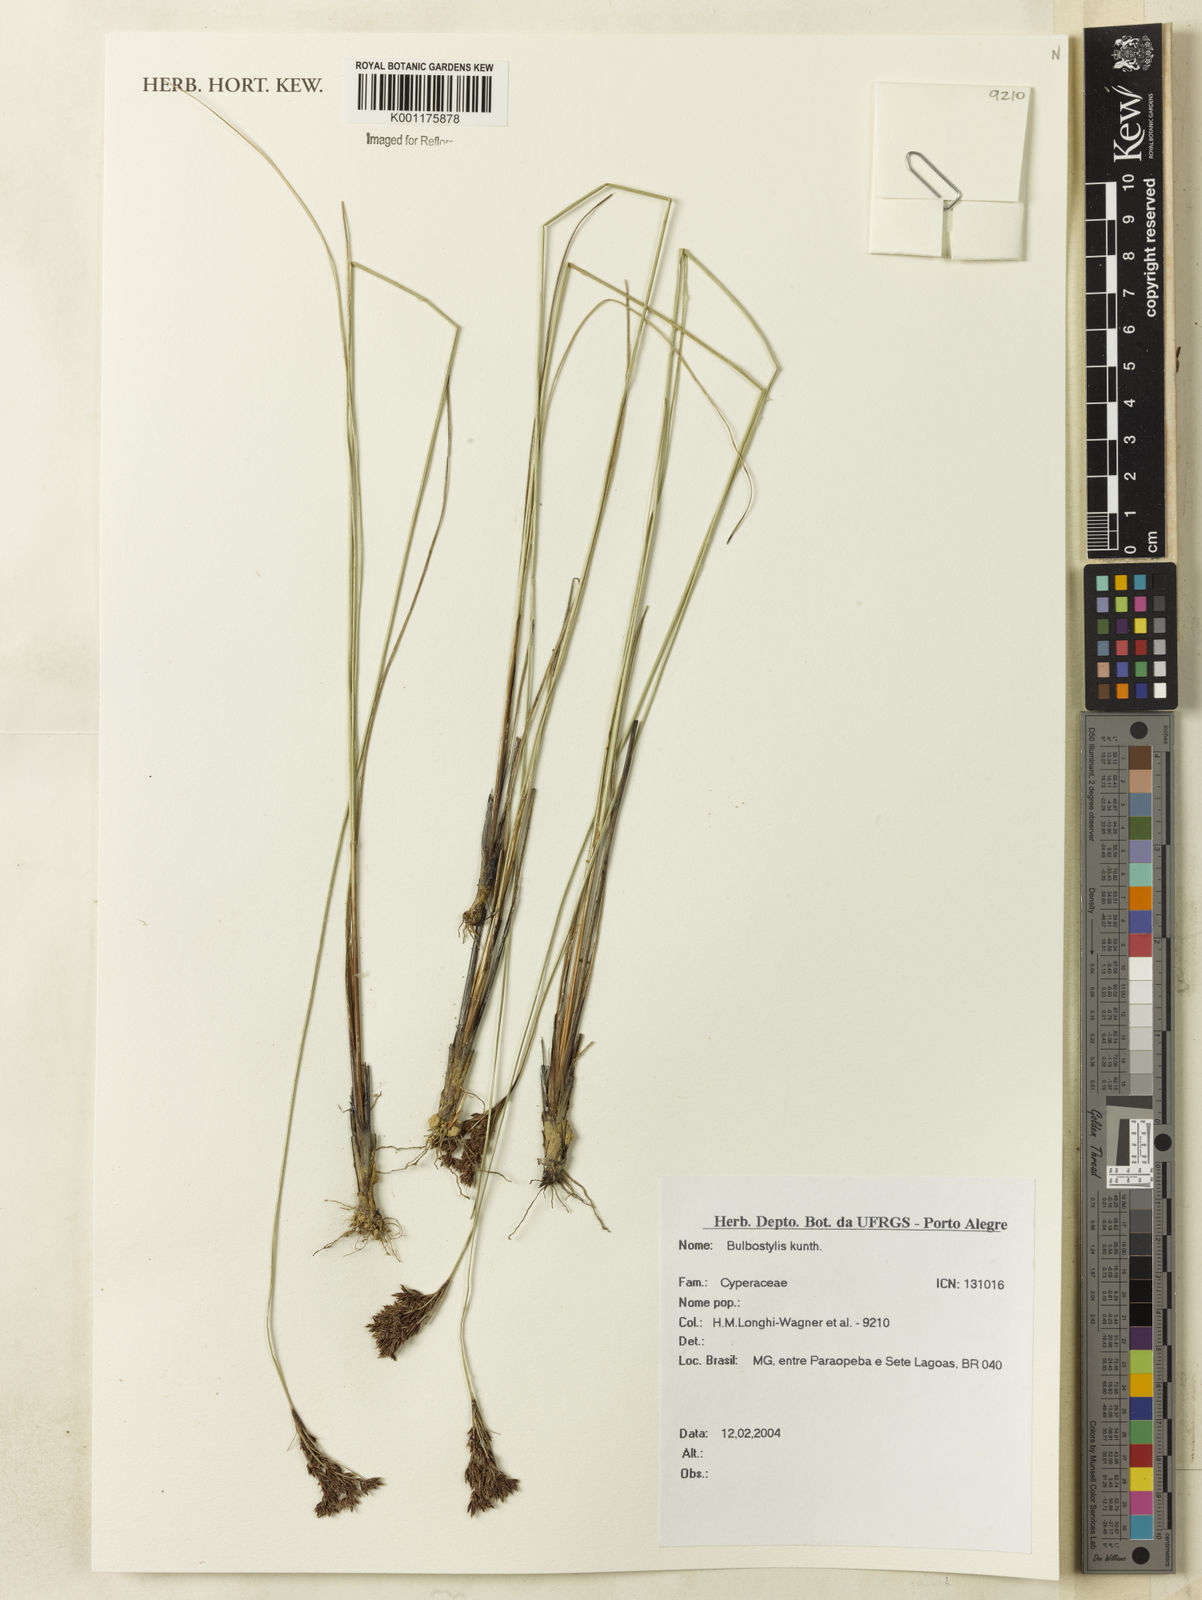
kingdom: Plantae
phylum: Tracheophyta
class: Liliopsida
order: Poales
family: Cyperaceae
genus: Bulbostylis
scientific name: Bulbostylis
